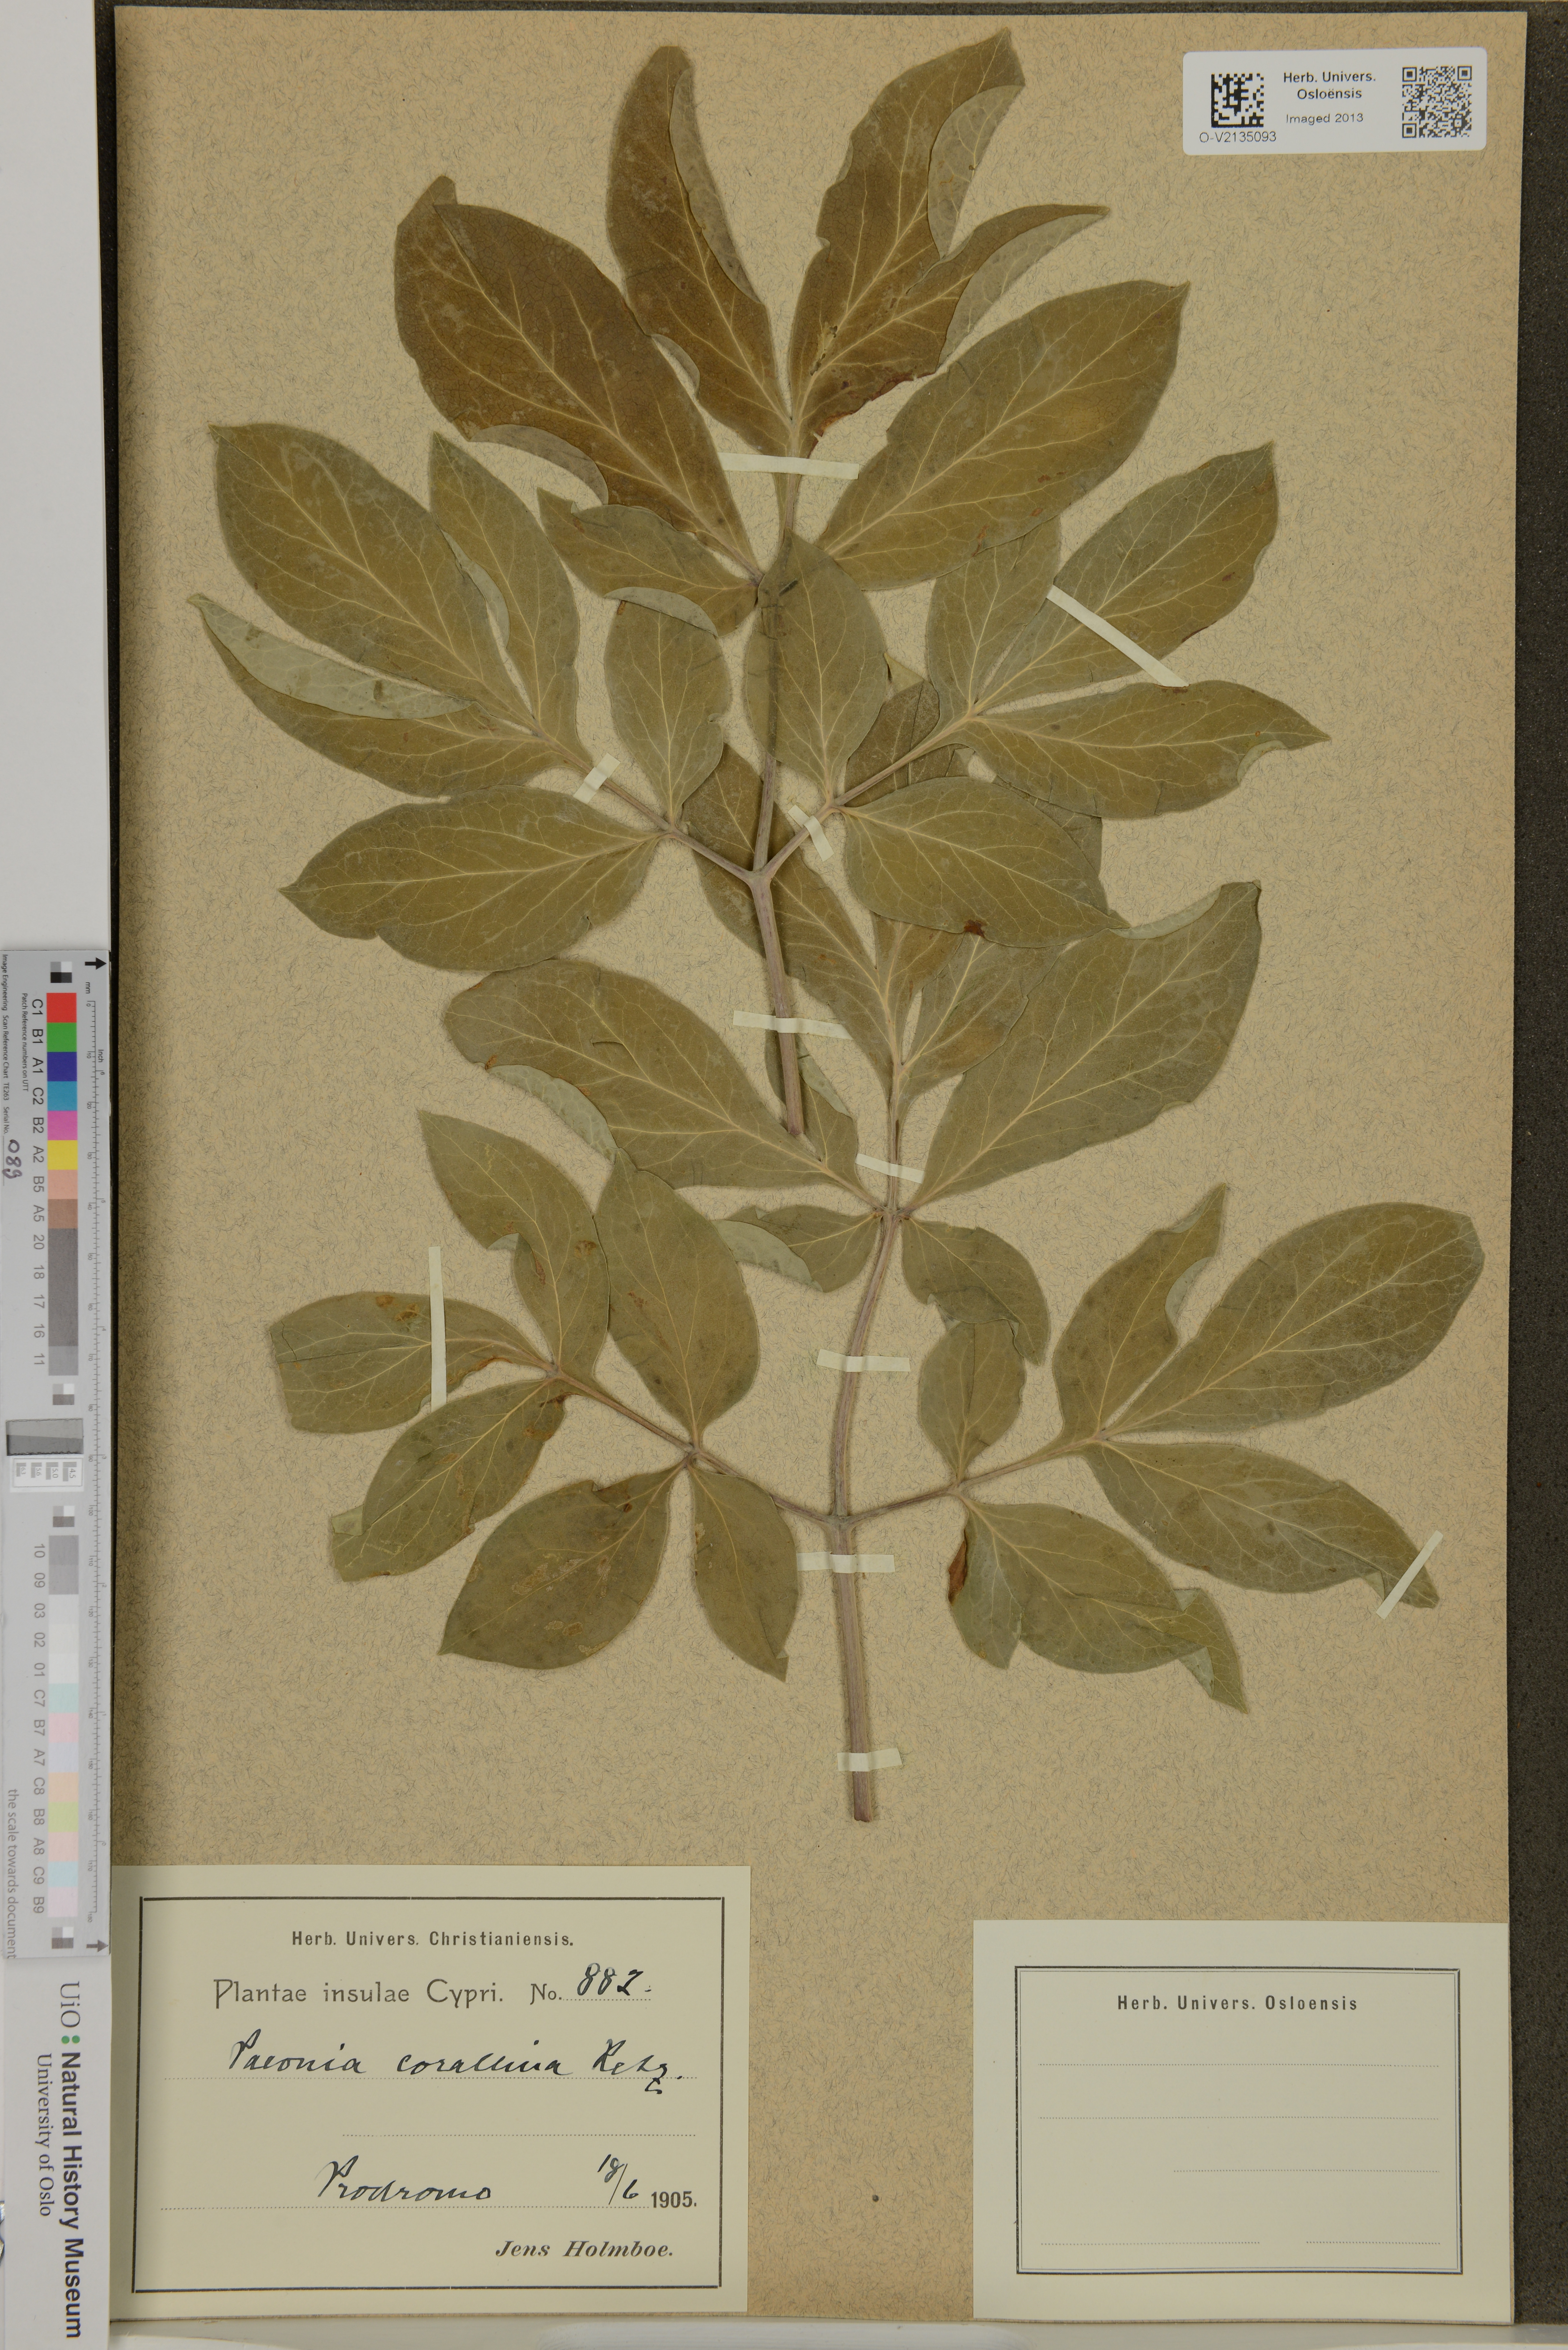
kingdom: Plantae
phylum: Tracheophyta
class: Magnoliopsida
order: Saxifragales
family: Paeoniaceae
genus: Paeonia
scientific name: Paeonia mascula
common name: Peony
